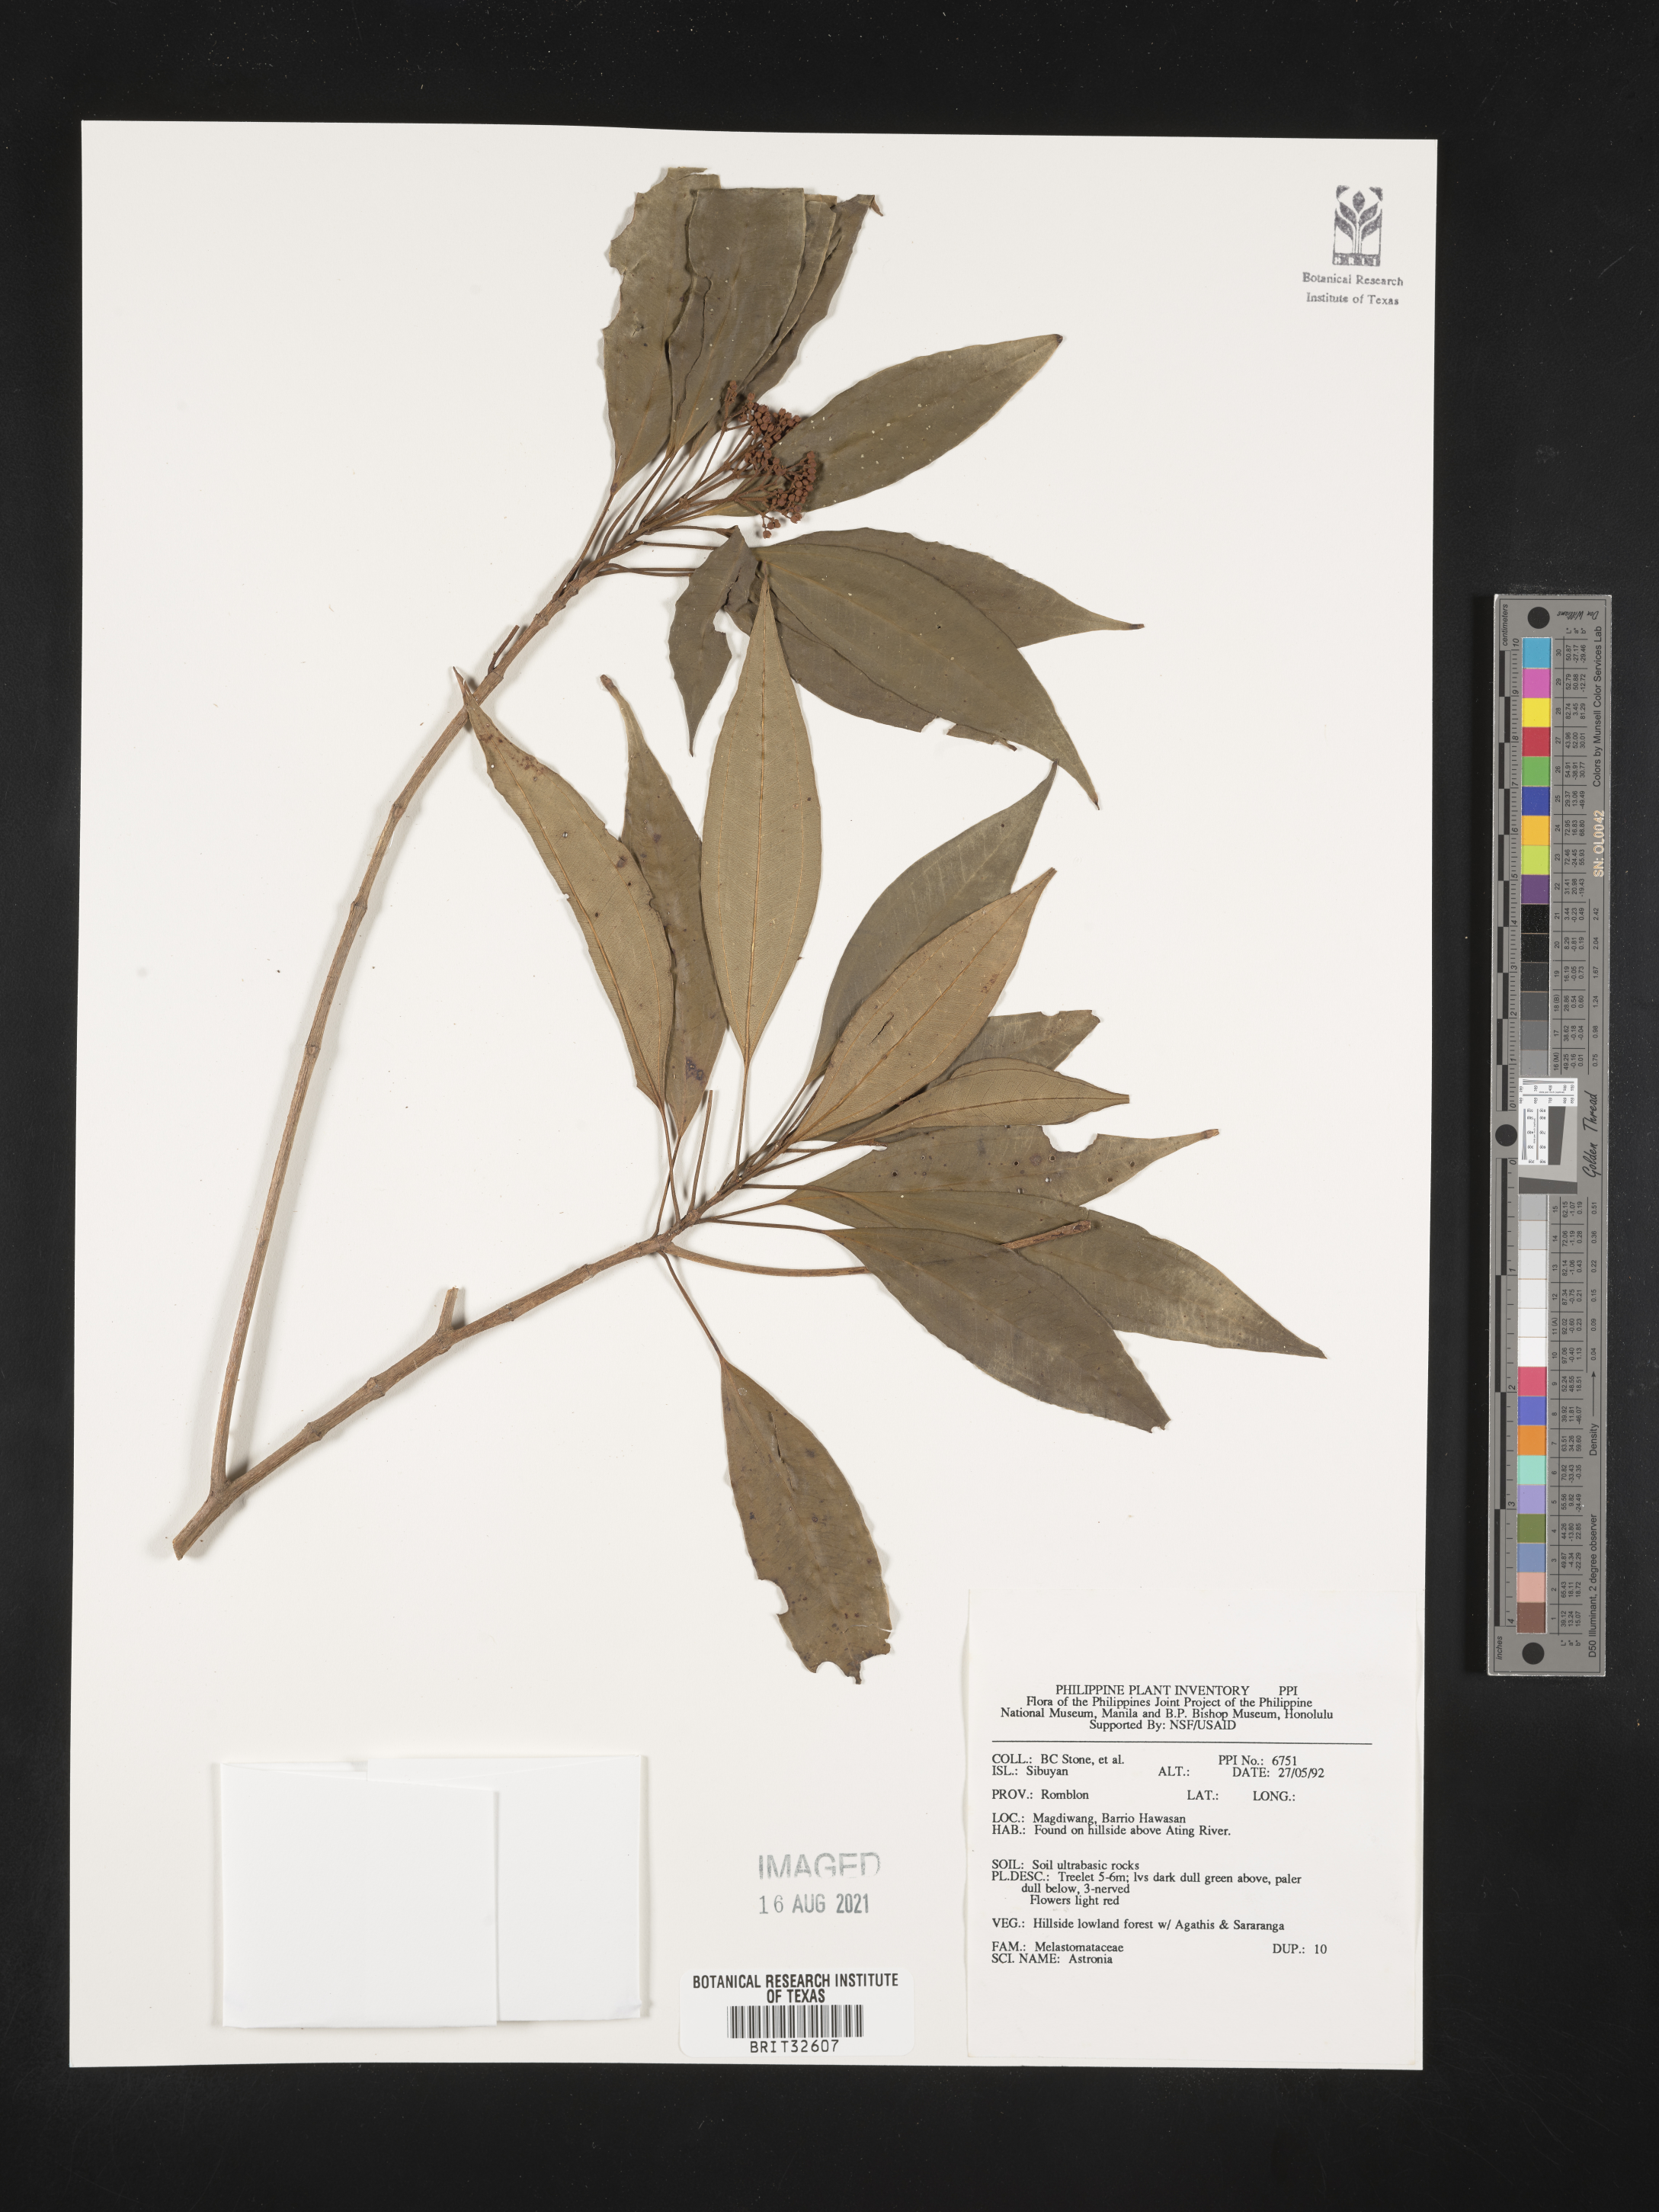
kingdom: Plantae
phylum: Tracheophyta
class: Magnoliopsida
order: Myrtales
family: Melastomataceae
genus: Astronia
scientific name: Astronia
